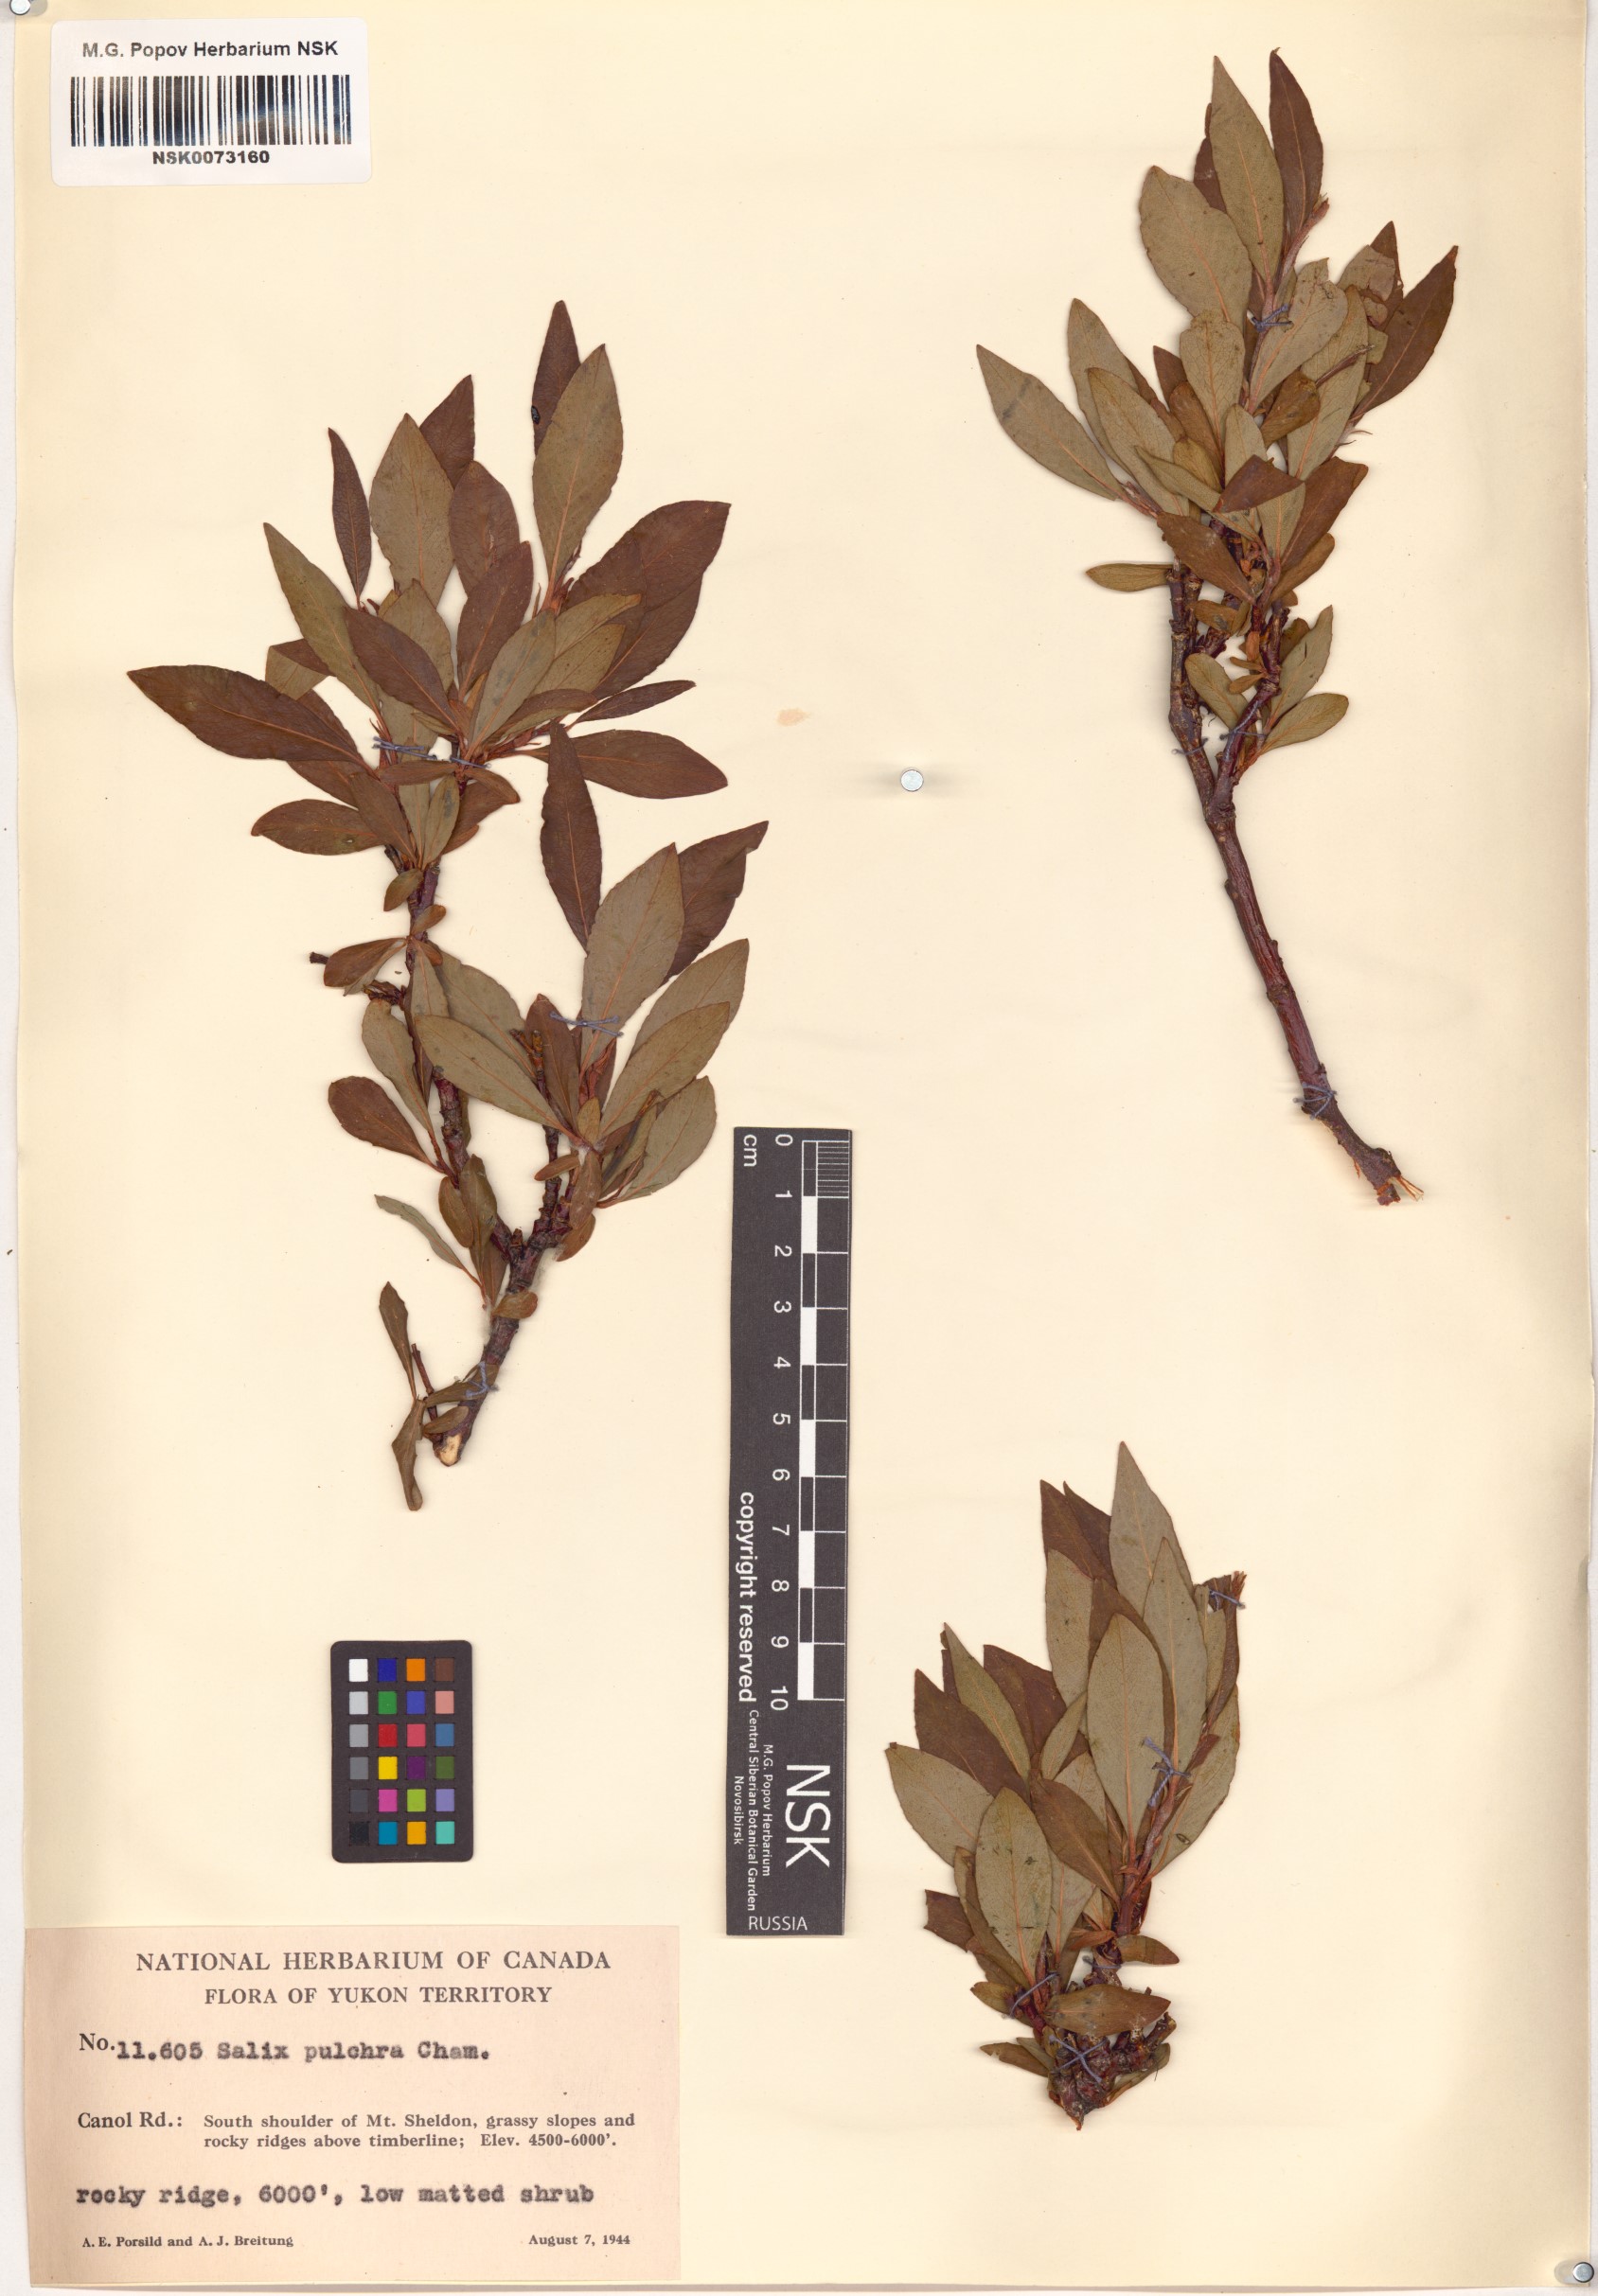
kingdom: Plantae
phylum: Tracheophyta
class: Magnoliopsida
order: Malpighiales
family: Salicaceae
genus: Salix
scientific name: Salix pulchra
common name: Diamond-leaved willow
